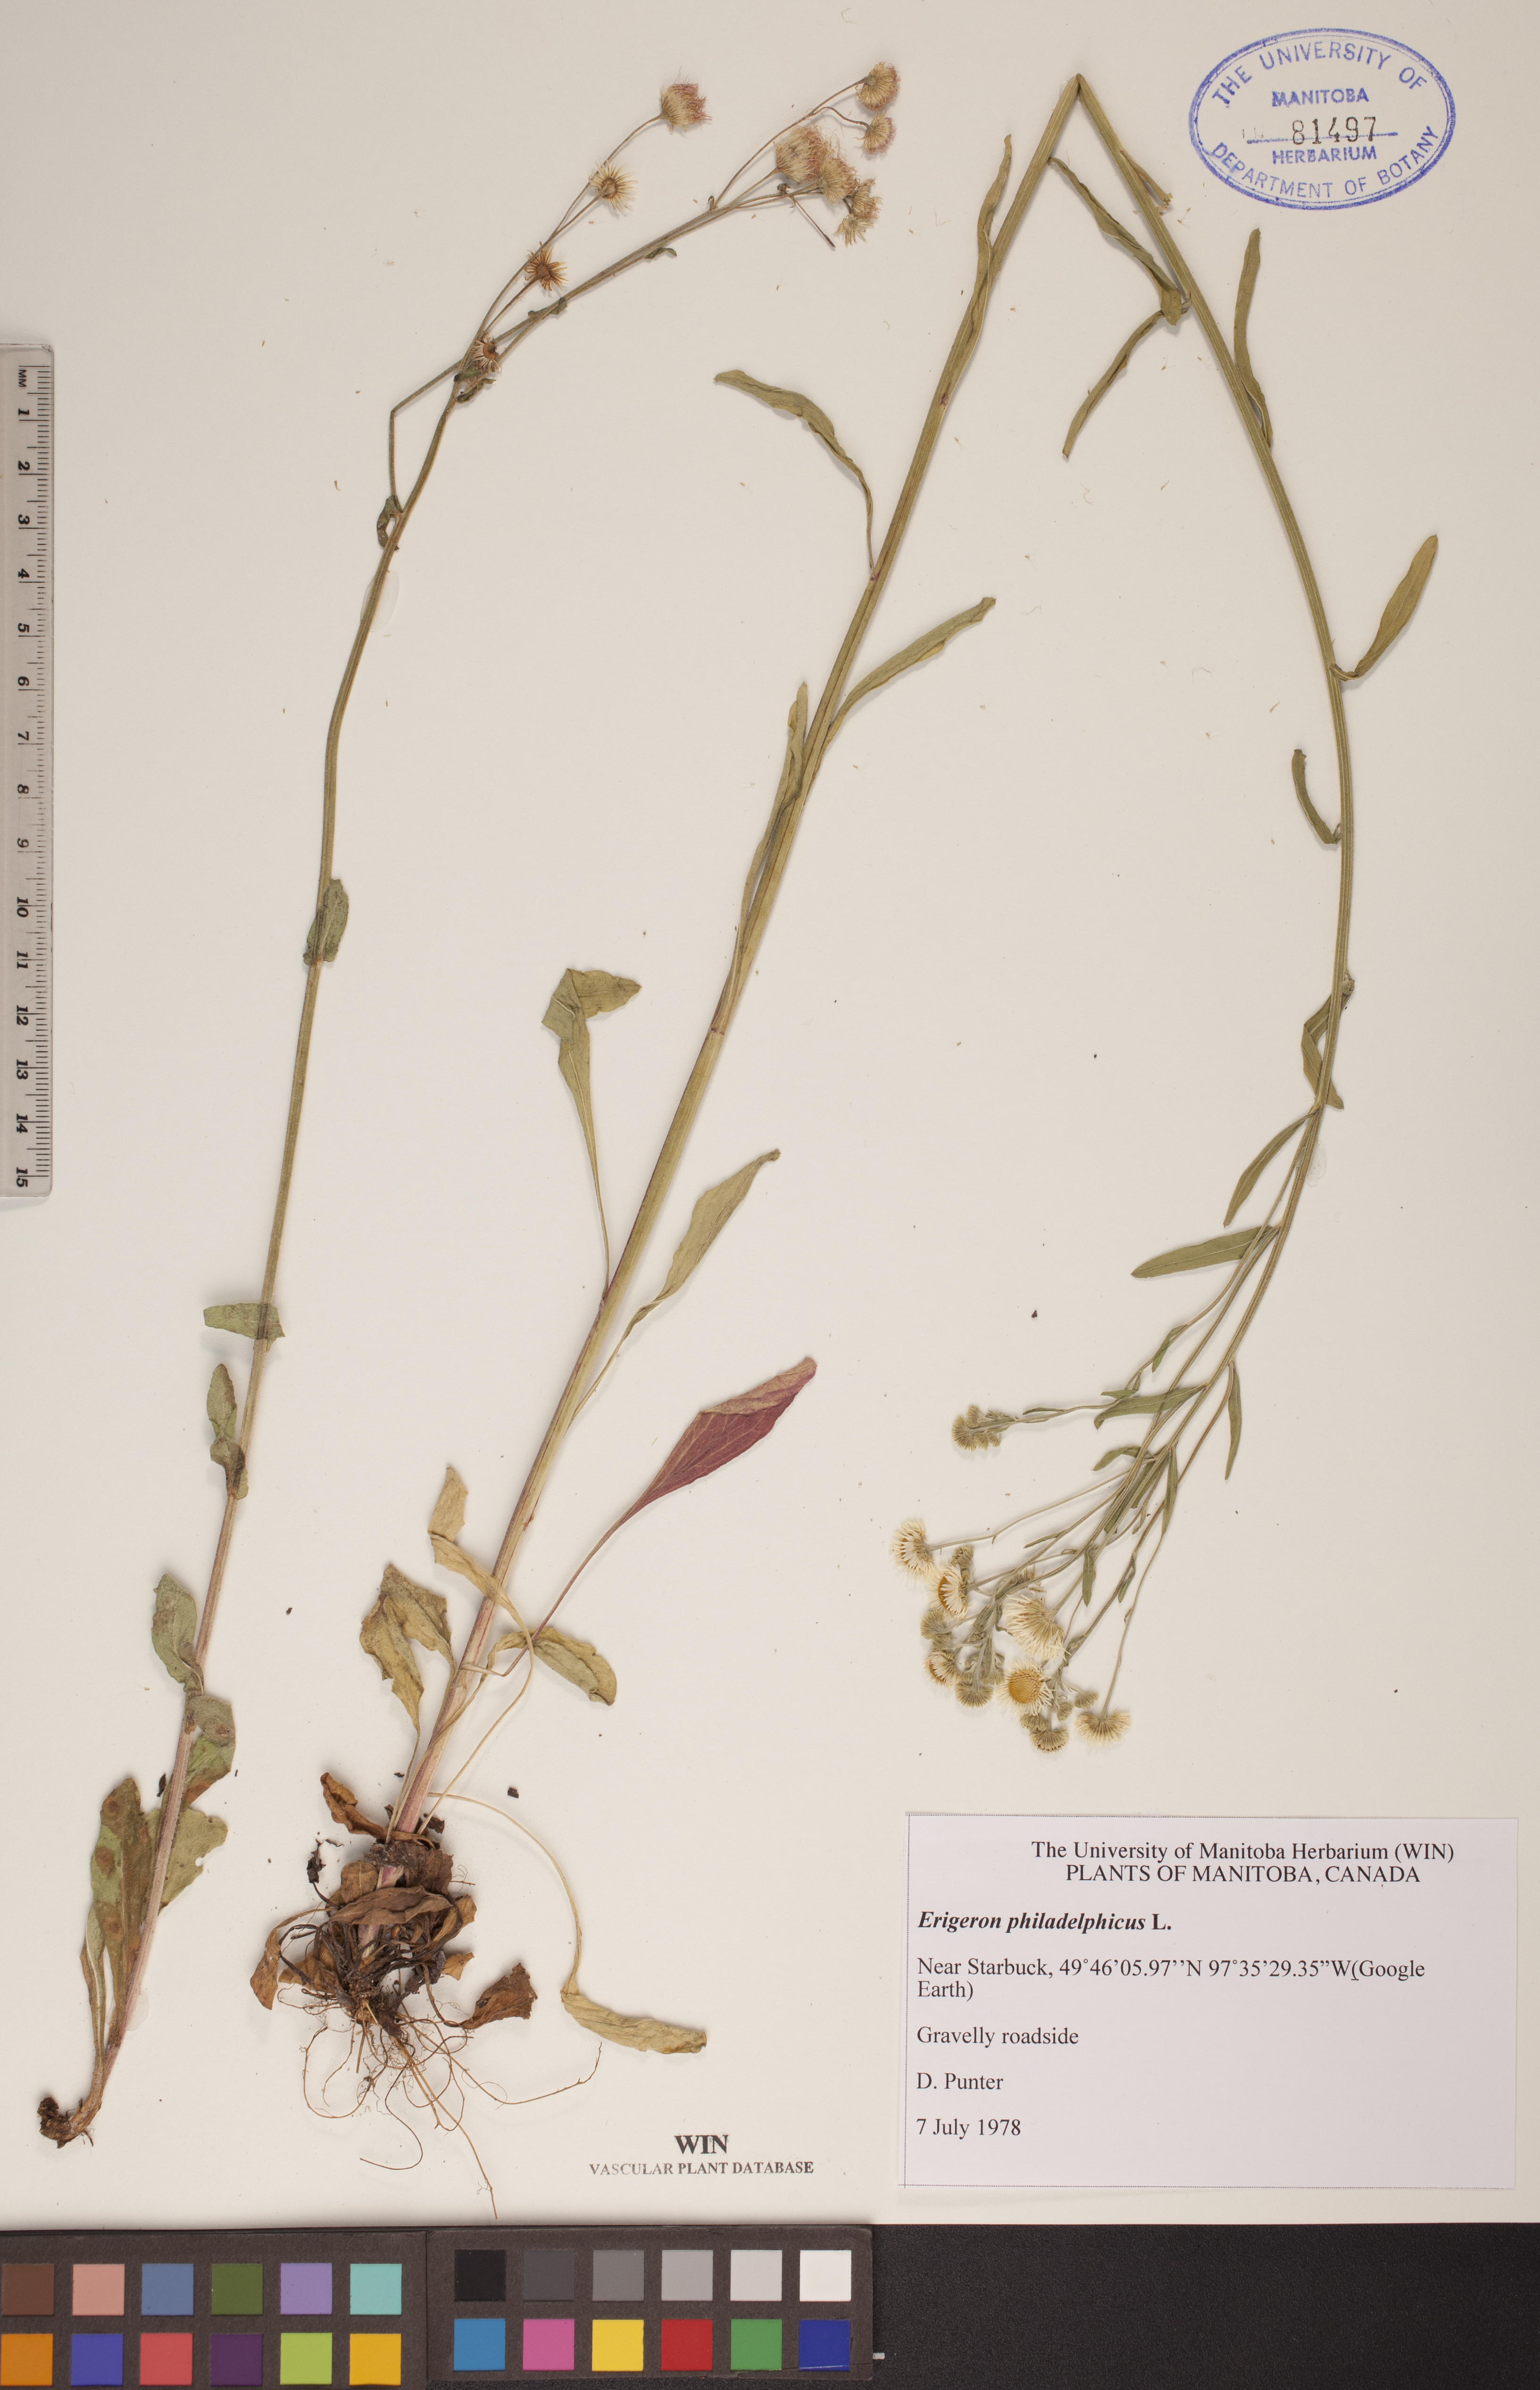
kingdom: Plantae
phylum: Tracheophyta
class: Magnoliopsida
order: Asterales
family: Asteraceae
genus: Erigeron
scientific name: Erigeron philadelphicus
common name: Robin's-plantain
